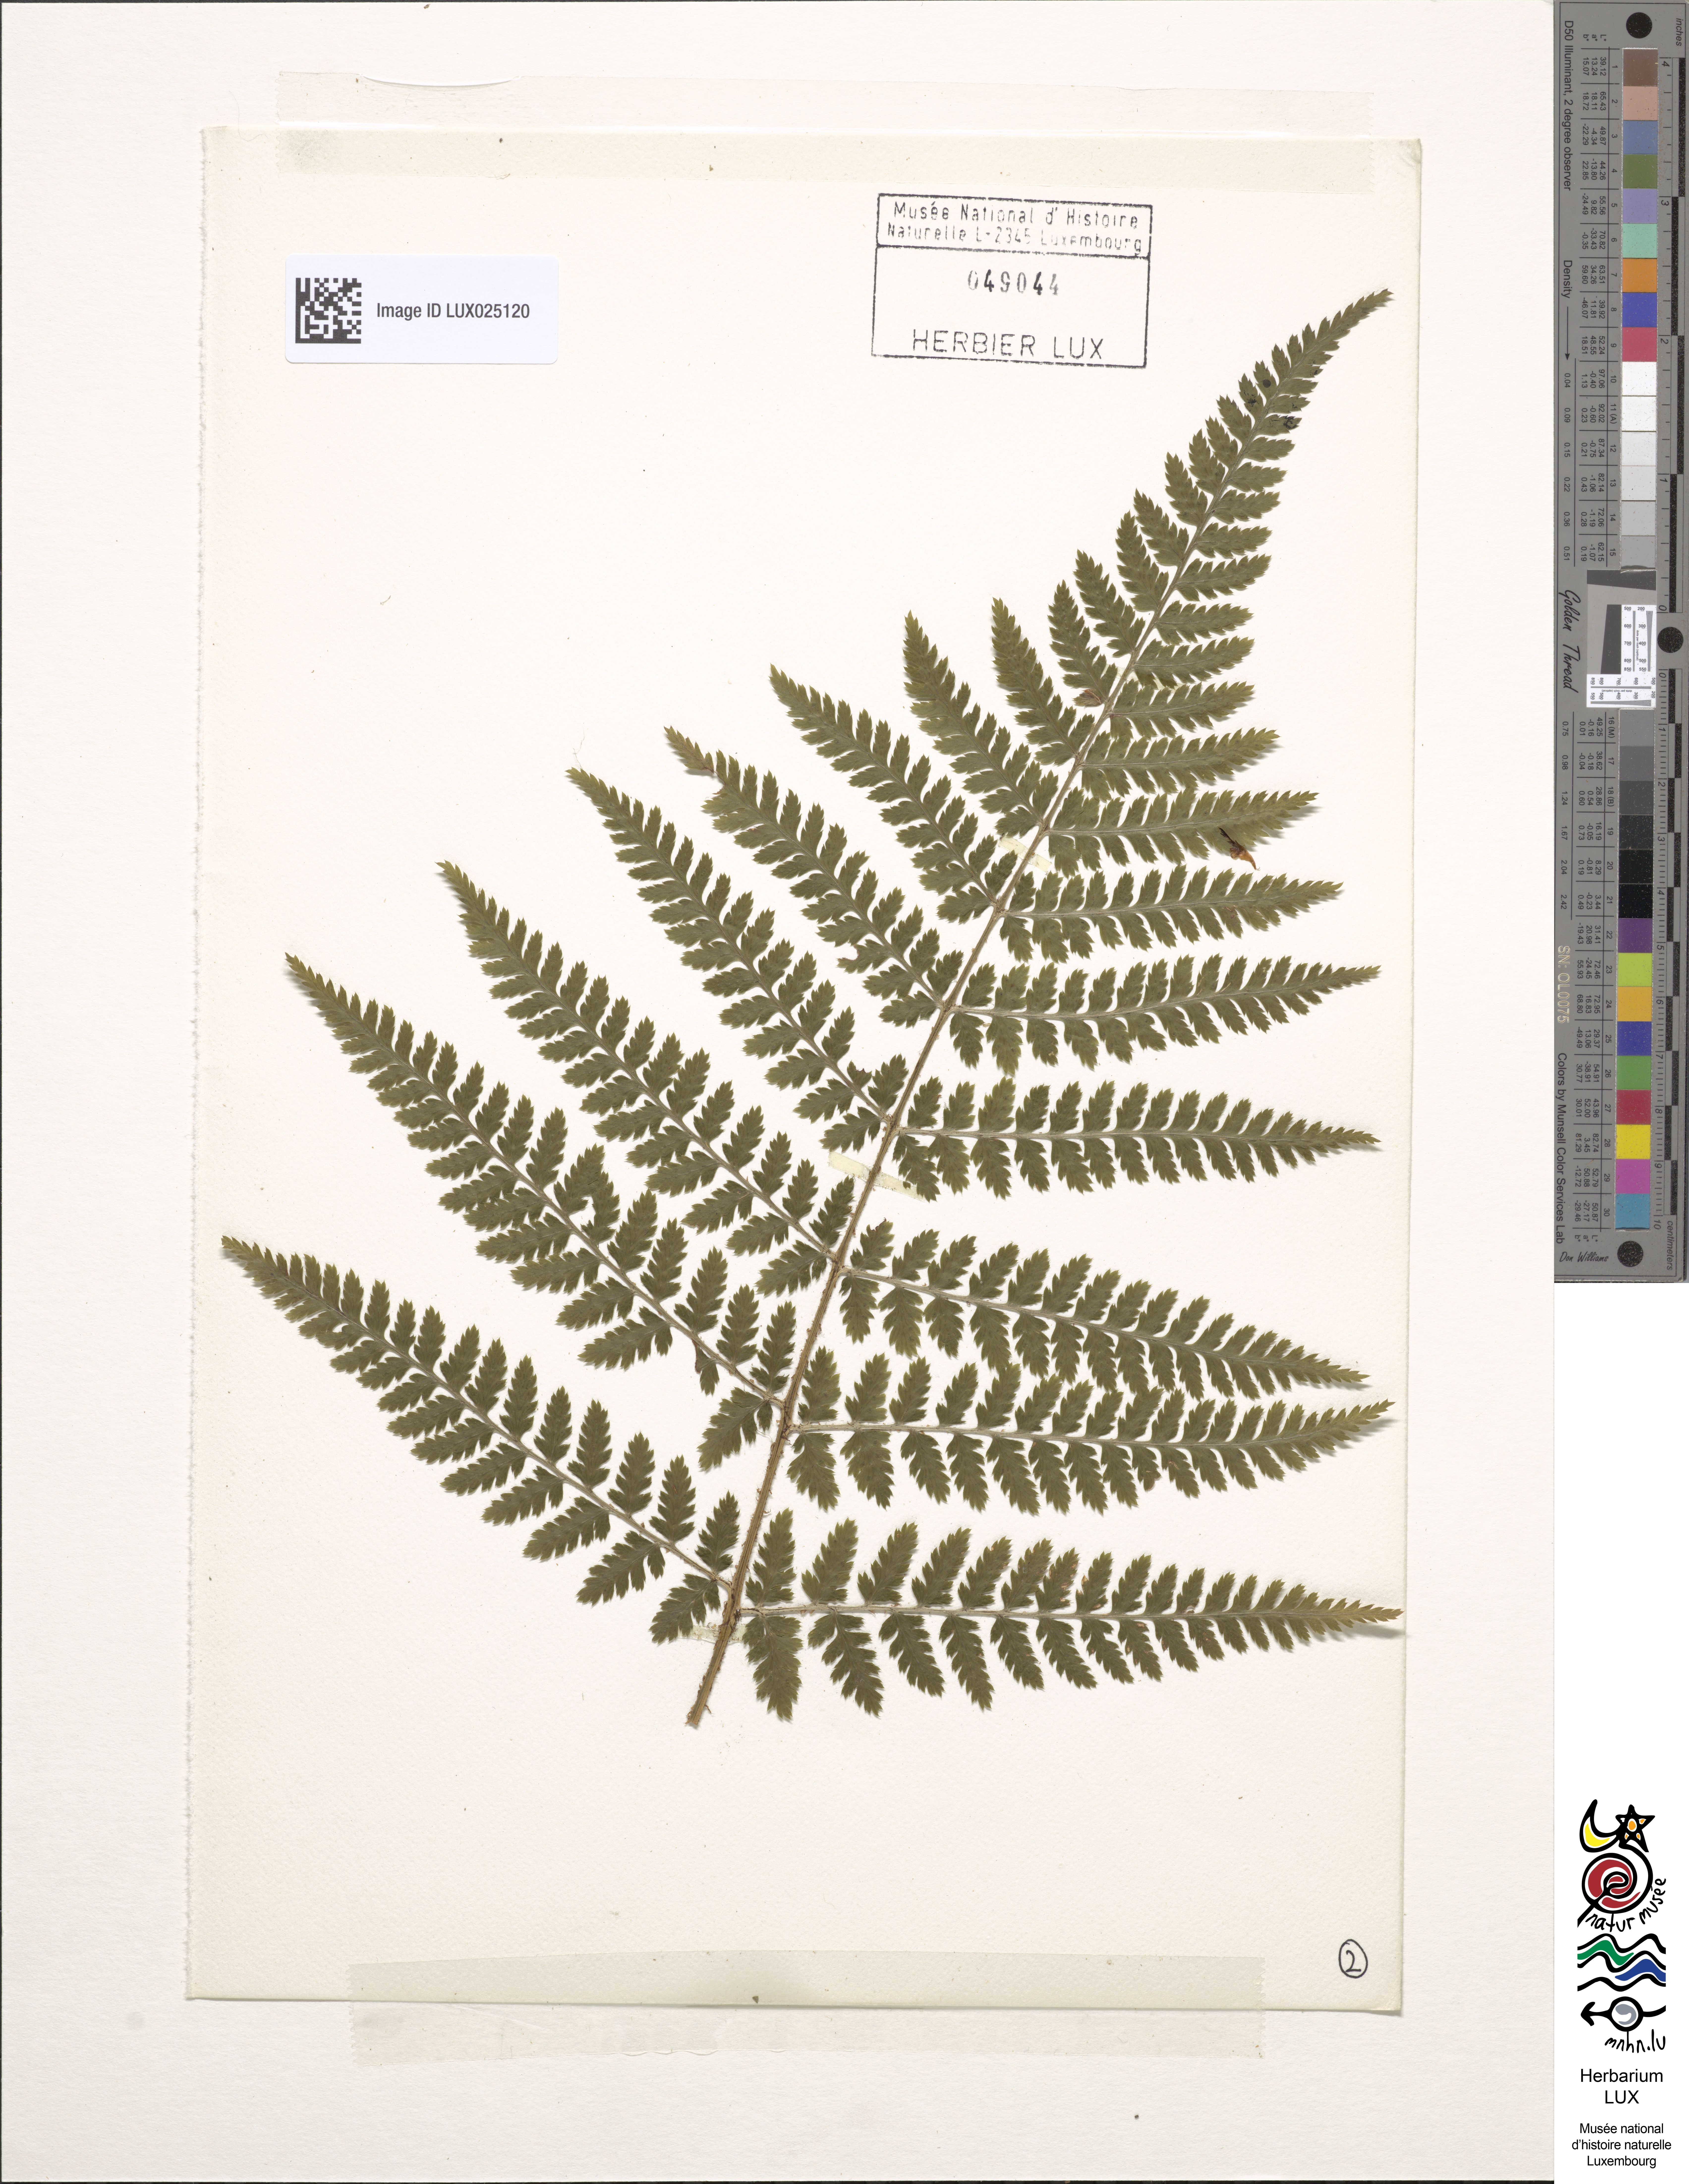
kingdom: Plantae
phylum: Tracheophyta
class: Polypodiopsida
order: Polypodiales
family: Dryopteridaceae
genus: Dryopteris
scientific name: Dryopteris dilatata
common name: Broad buckler-fern
